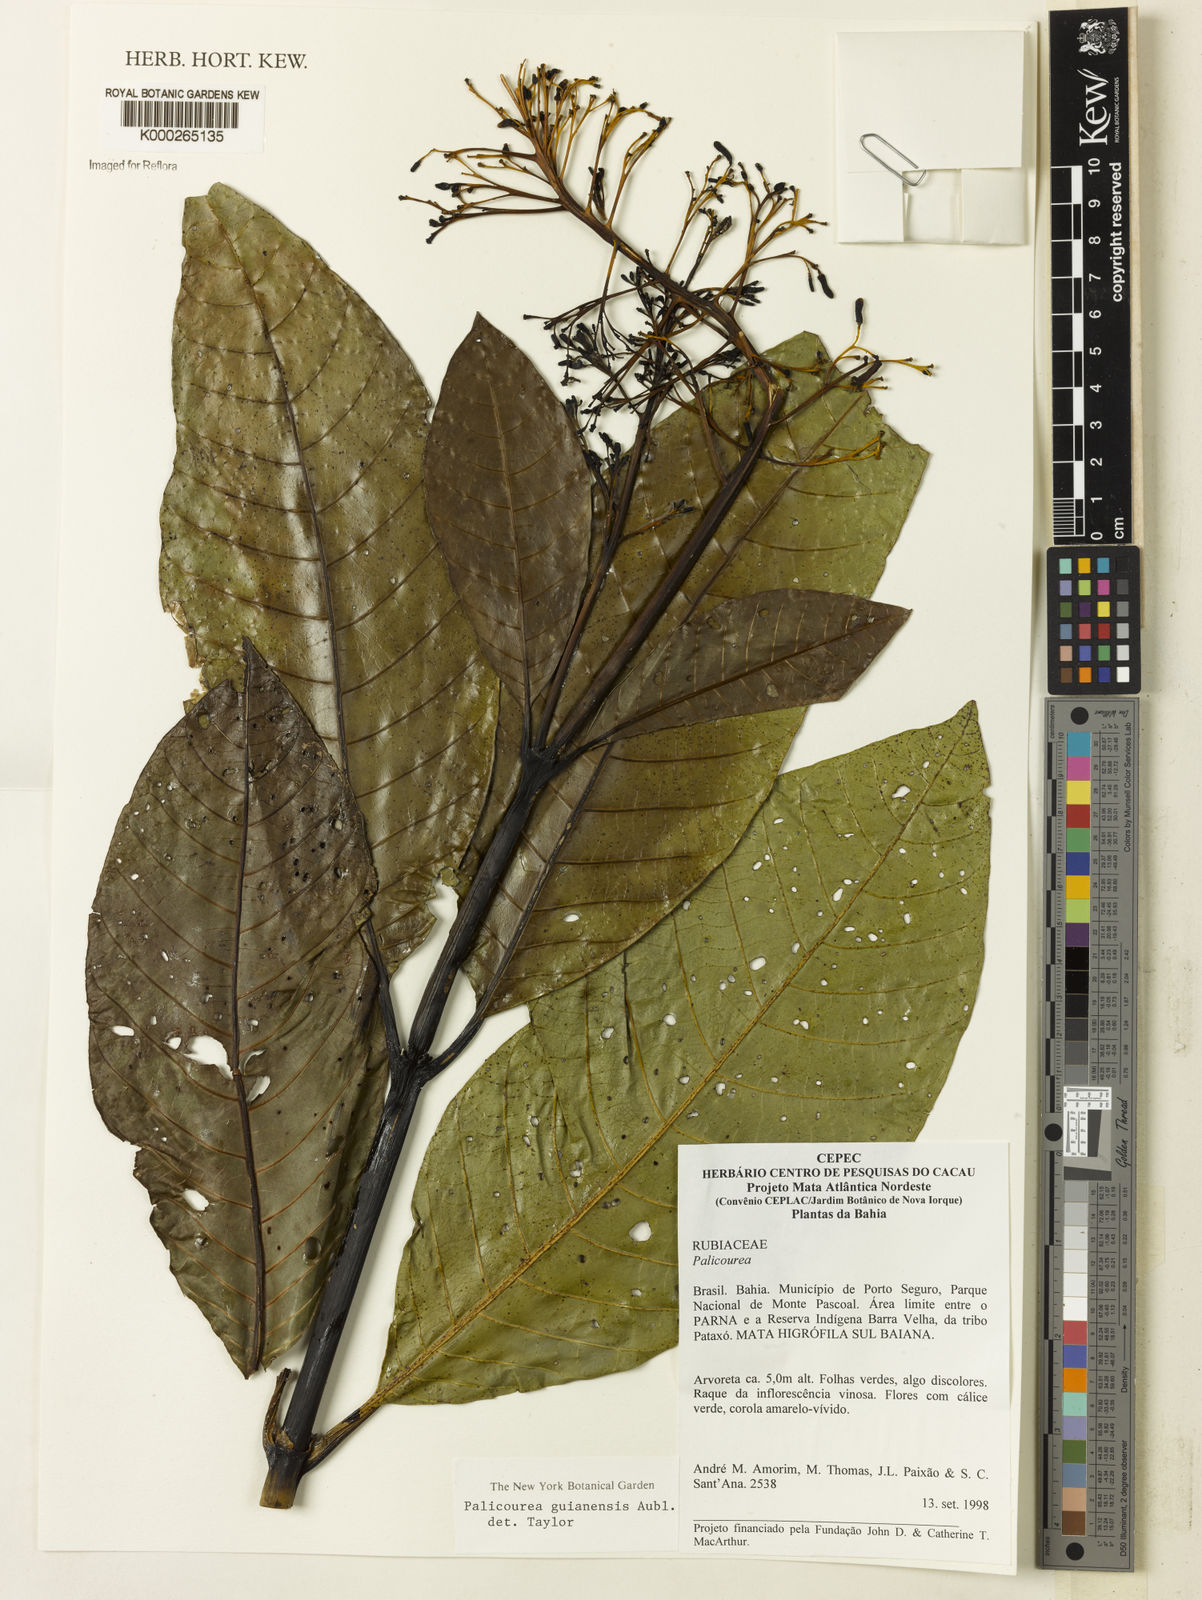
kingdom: Plantae
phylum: Tracheophyta
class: Magnoliopsida
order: Gentianales
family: Rubiaceae
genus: Palicourea
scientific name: Palicourea guianensis
